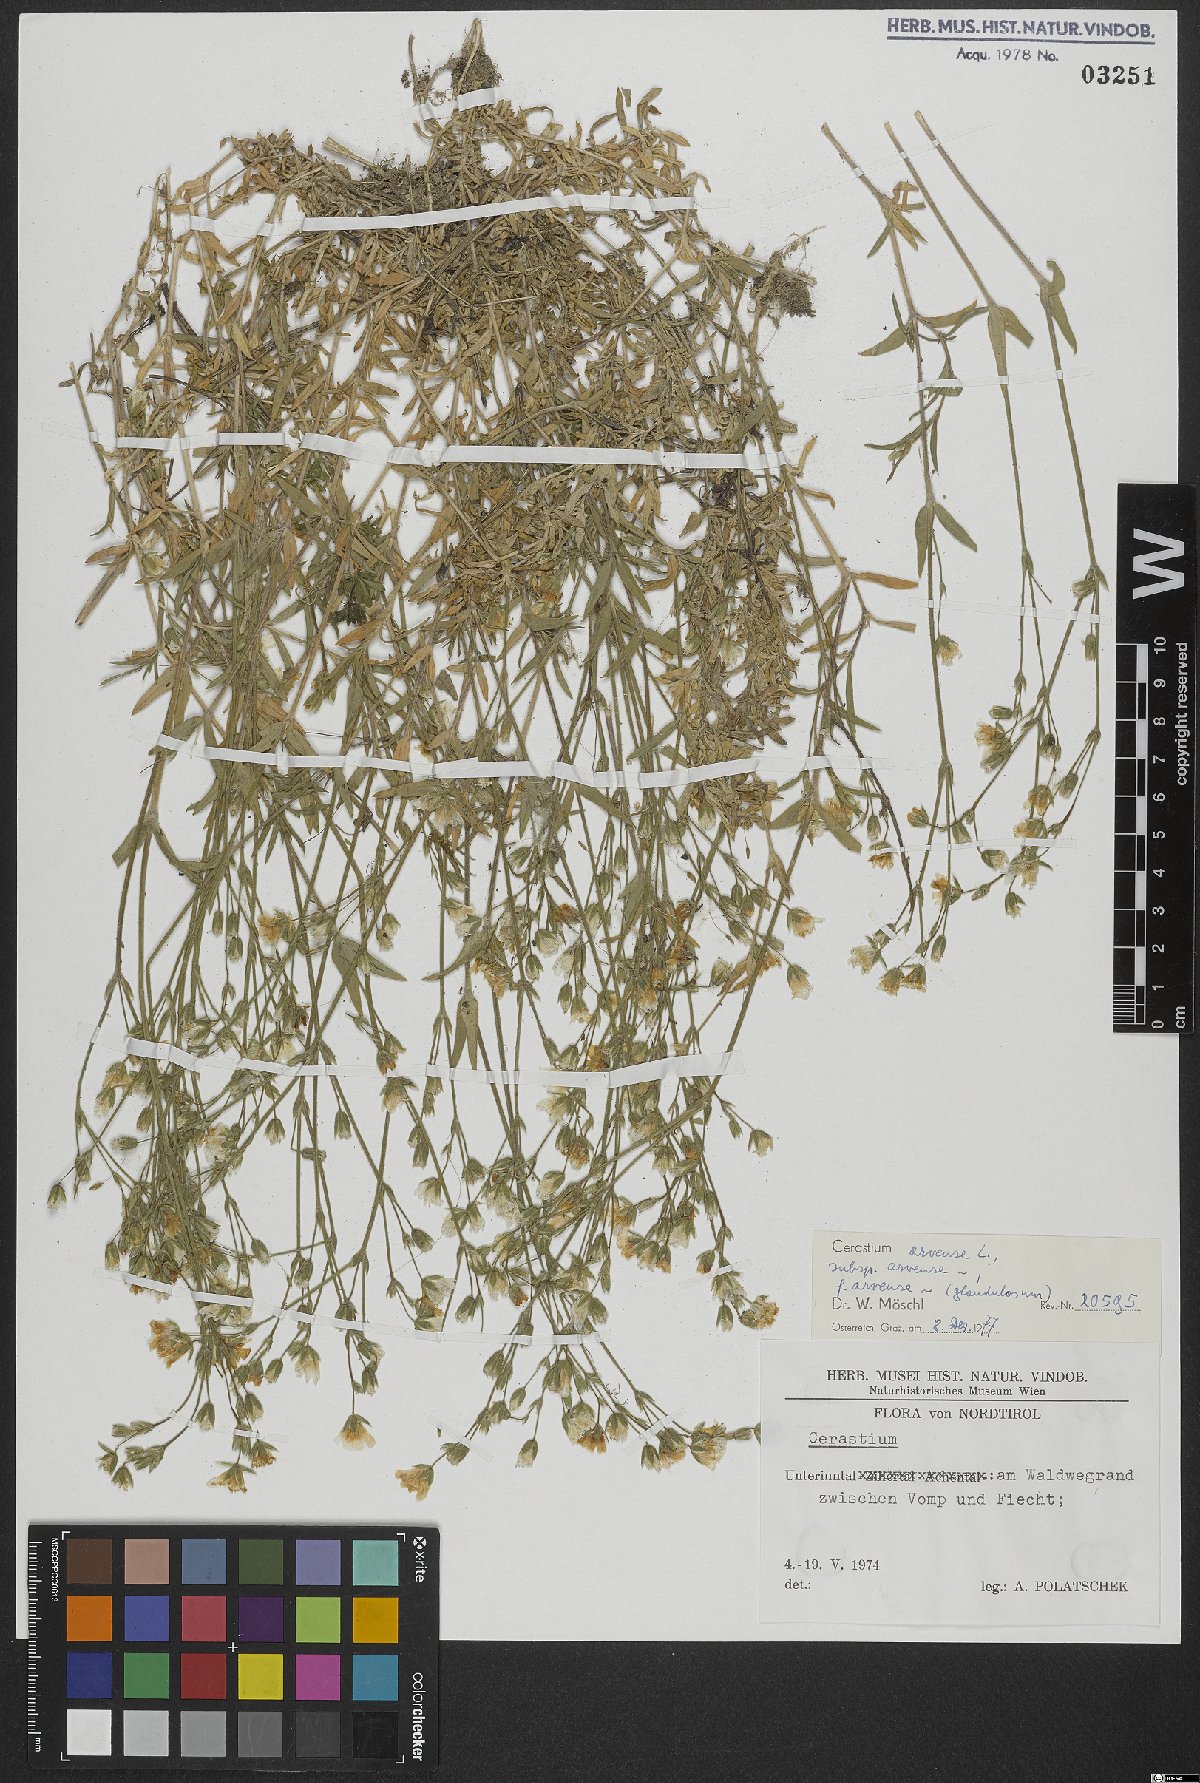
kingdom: Plantae
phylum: Tracheophyta
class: Magnoliopsida
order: Caryophyllales
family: Caryophyllaceae
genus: Cerastium
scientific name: Cerastium arvense
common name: Field mouse-ear
